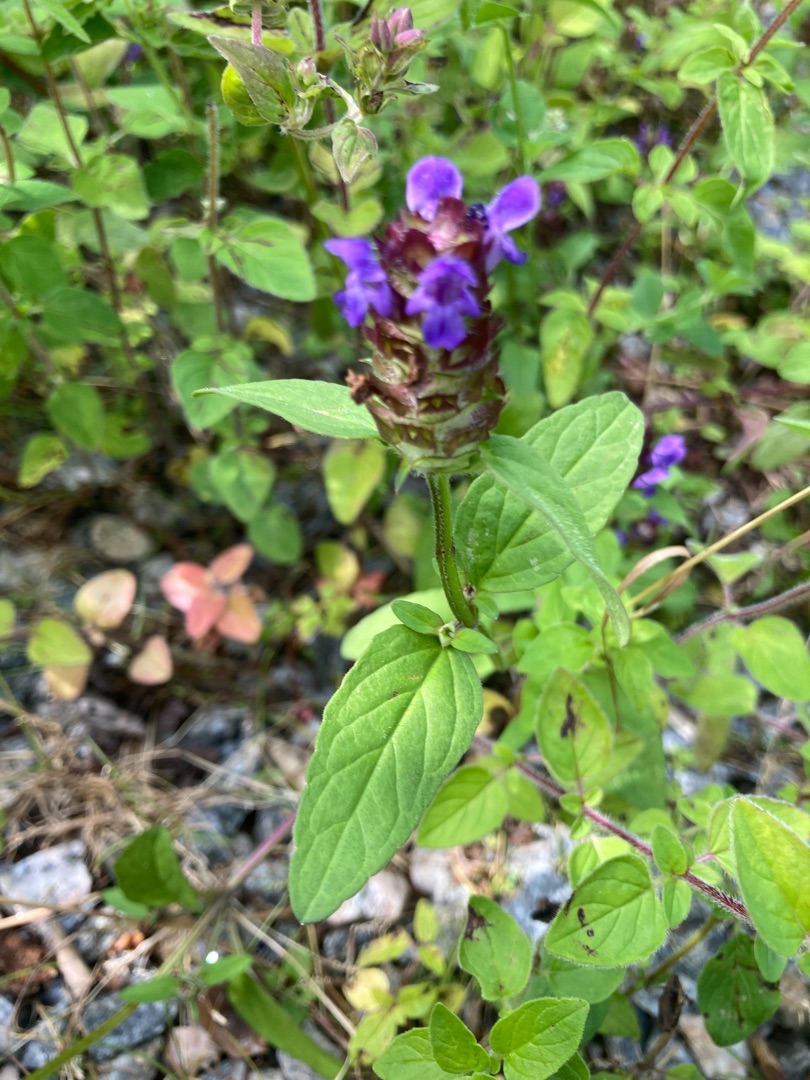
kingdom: Plantae
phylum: Tracheophyta
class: Magnoliopsida
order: Lamiales
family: Lamiaceae
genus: Prunella
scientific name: Prunella vulgaris
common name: Almindelig brunelle
